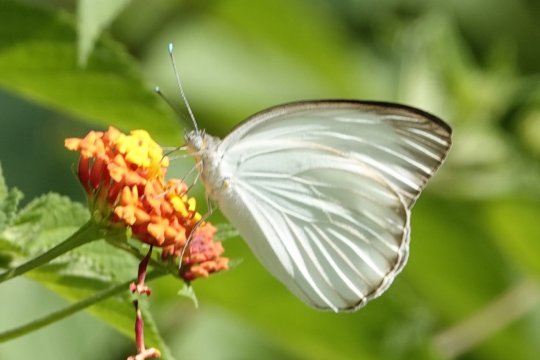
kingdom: Animalia
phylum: Arthropoda
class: Insecta
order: Lepidoptera
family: Pieridae
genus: Ascia
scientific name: Ascia monuste
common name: Great Southern White
